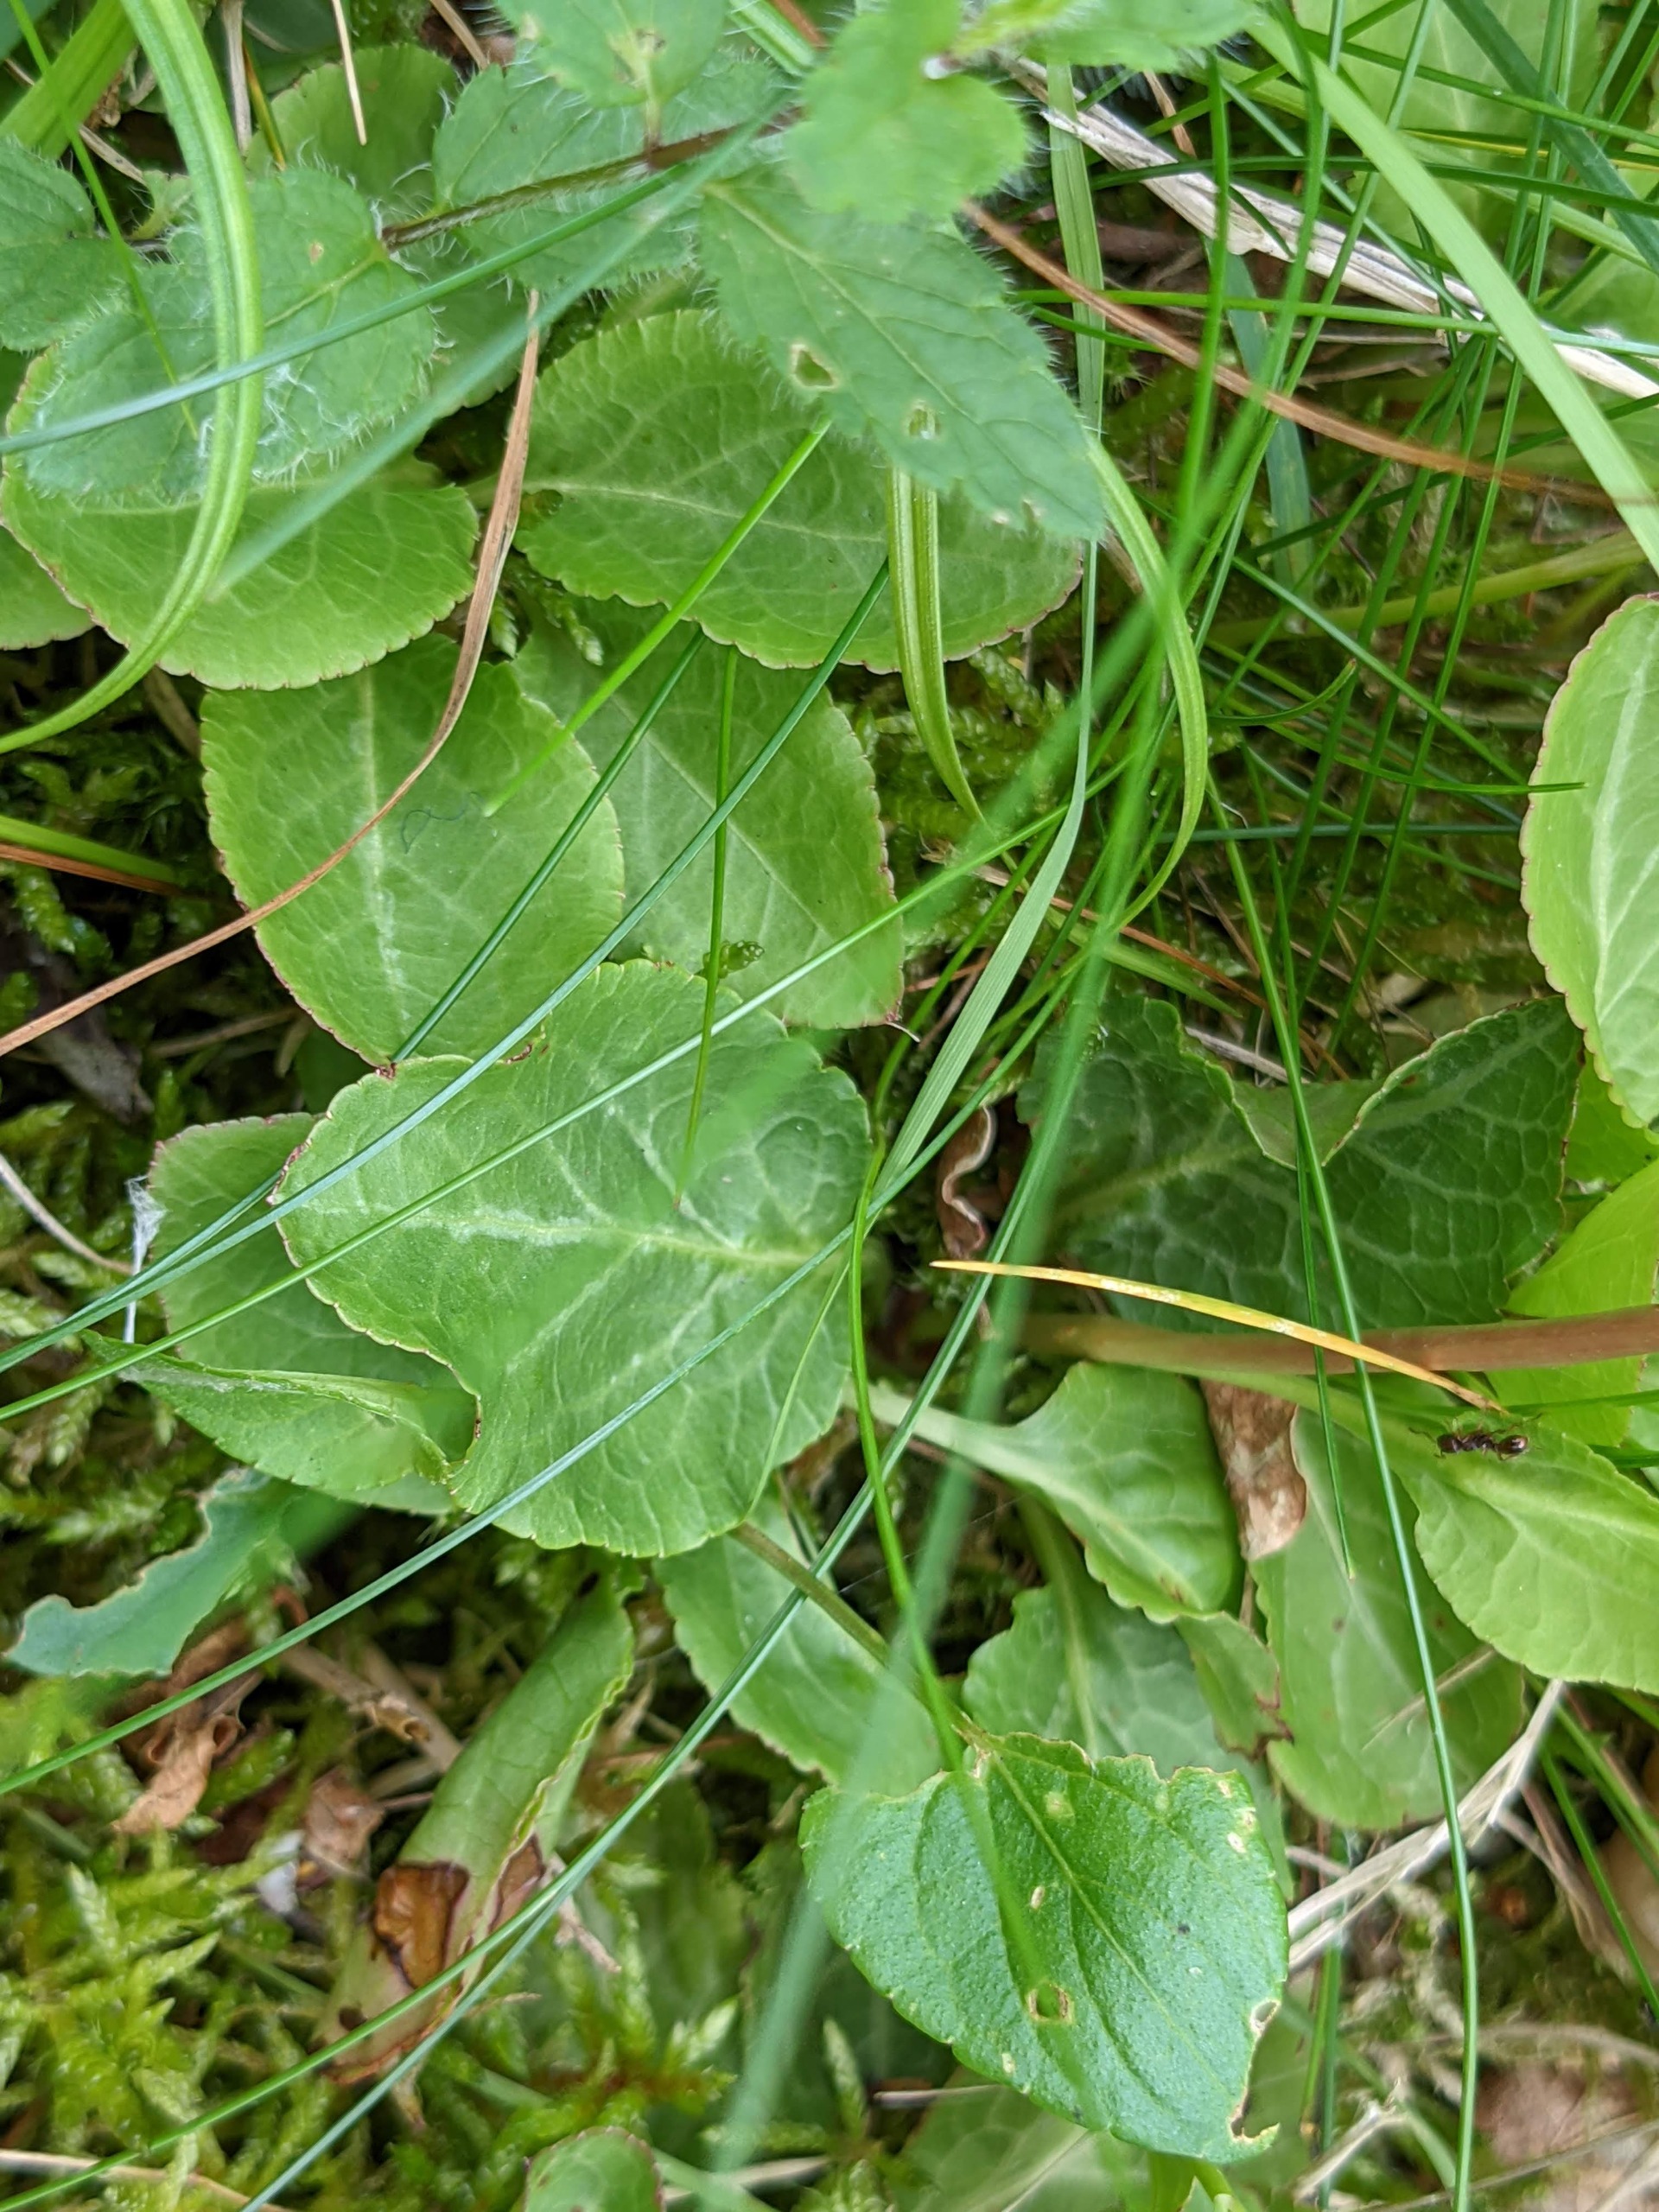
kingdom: Plantae
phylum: Tracheophyta
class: Magnoliopsida
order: Ericales
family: Ericaceae
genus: Pyrola
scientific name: Pyrola minor
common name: Liden vintergrøn
